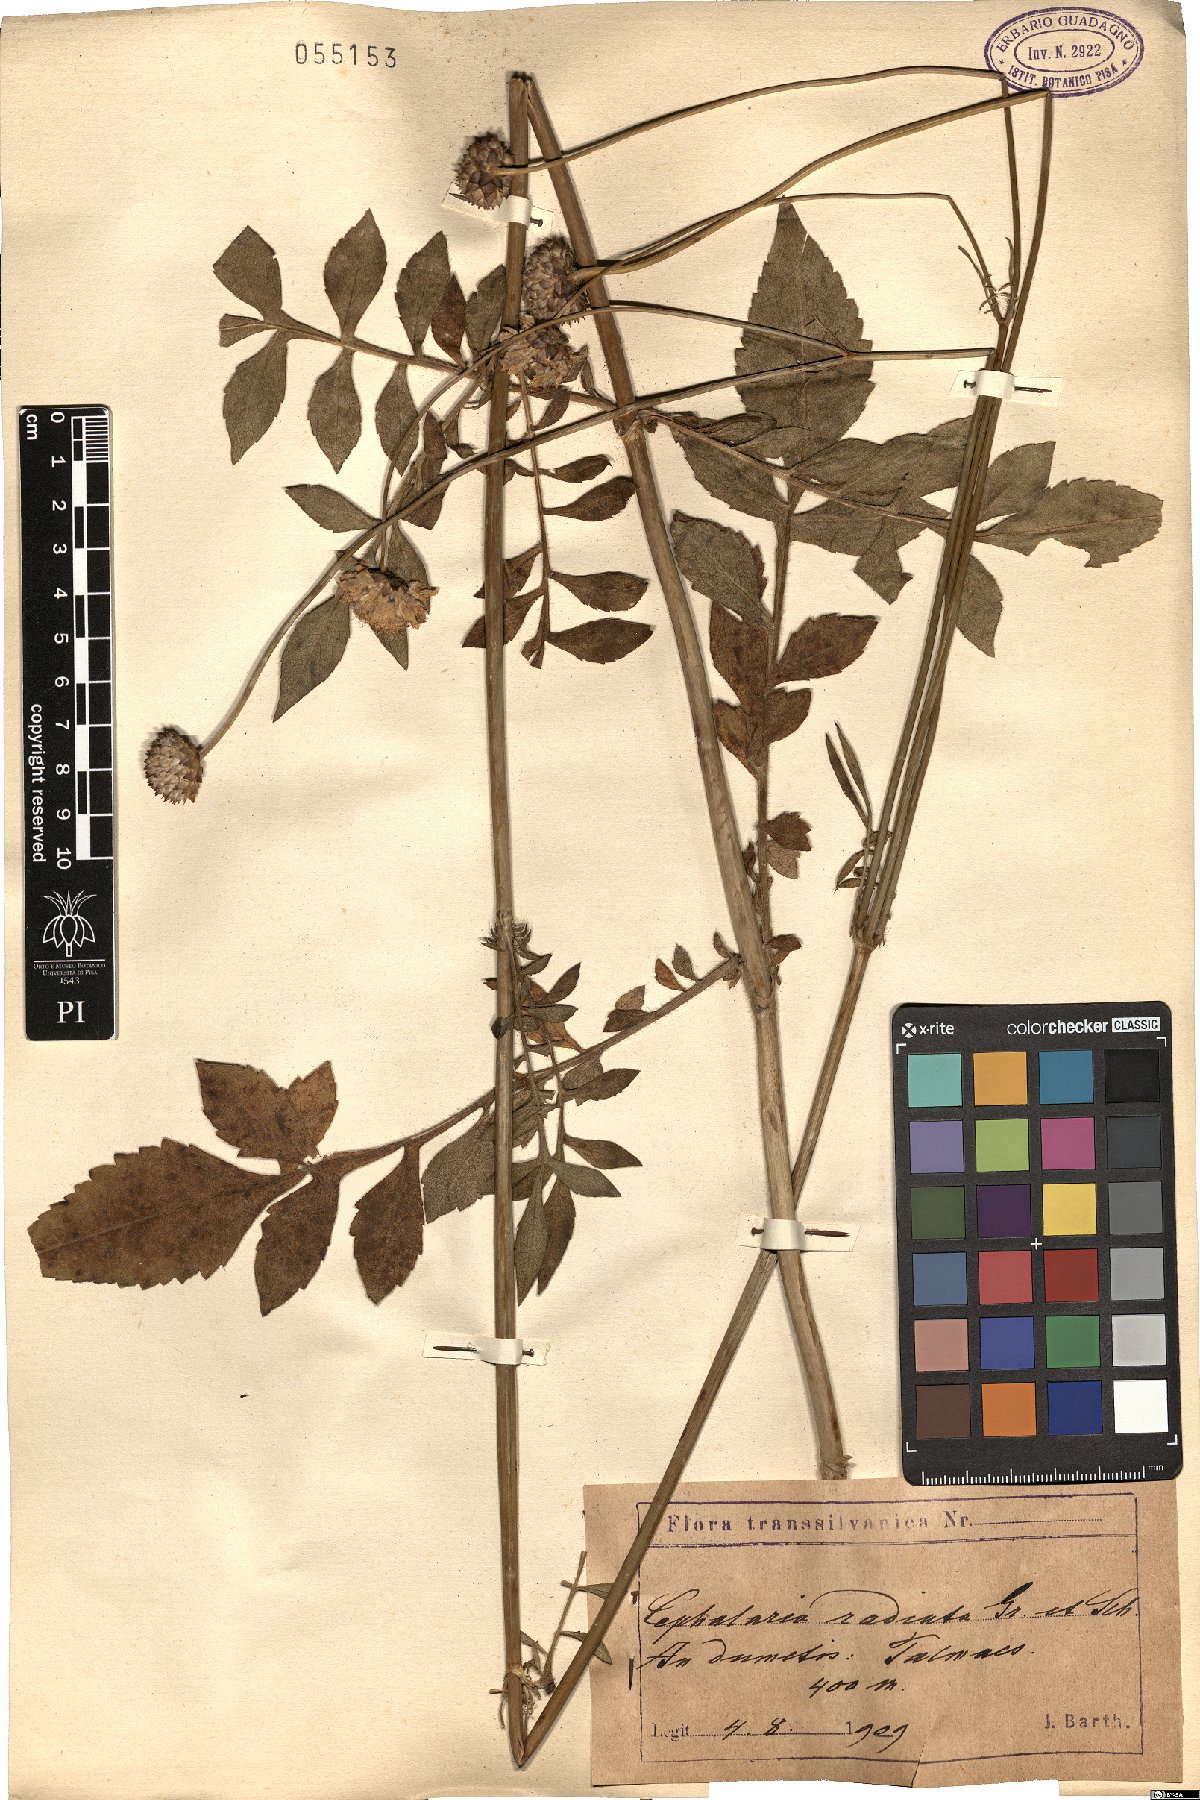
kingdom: Plantae
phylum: Tracheophyta
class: Magnoliopsida
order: Dipsacales
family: Caprifoliaceae
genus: Cephalaria
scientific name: Cephalaria radiata
